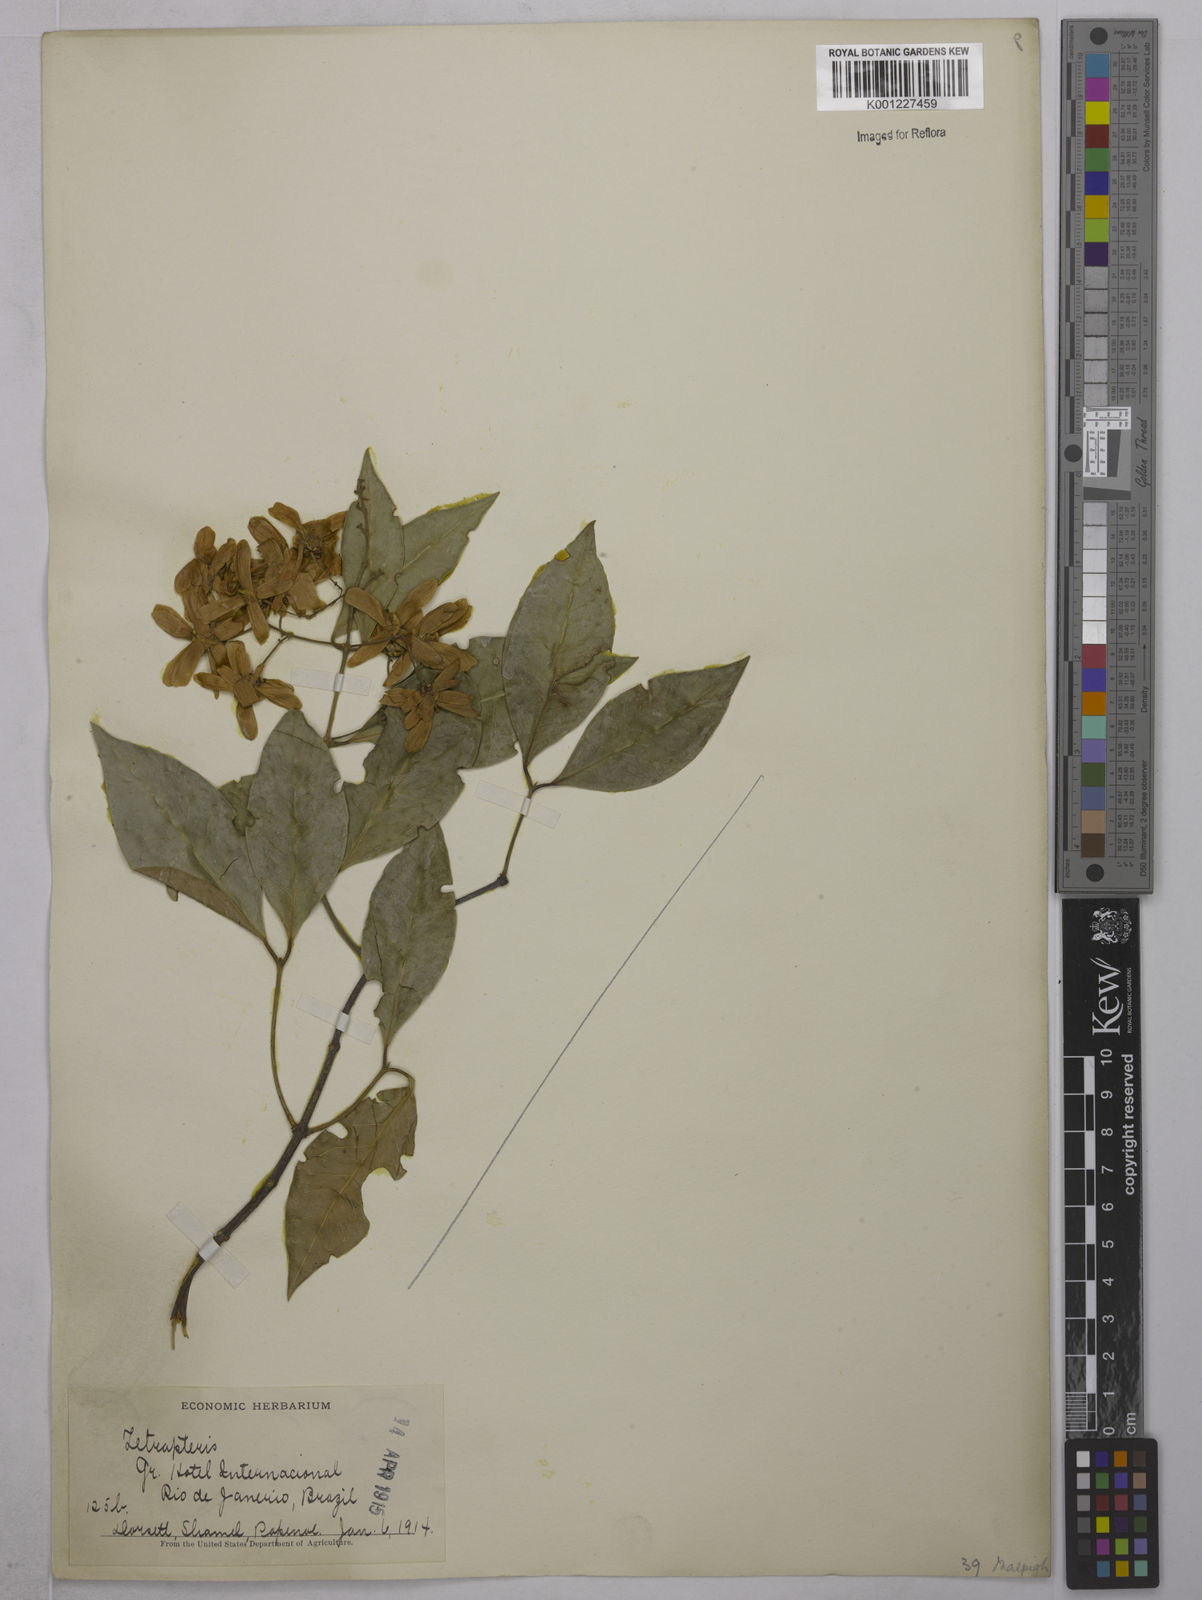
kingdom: Plantae
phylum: Tracheophyta
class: Magnoliopsida
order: Malpighiales
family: Malpighiaceae
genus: Tetrapterys
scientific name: Tetrapterys
